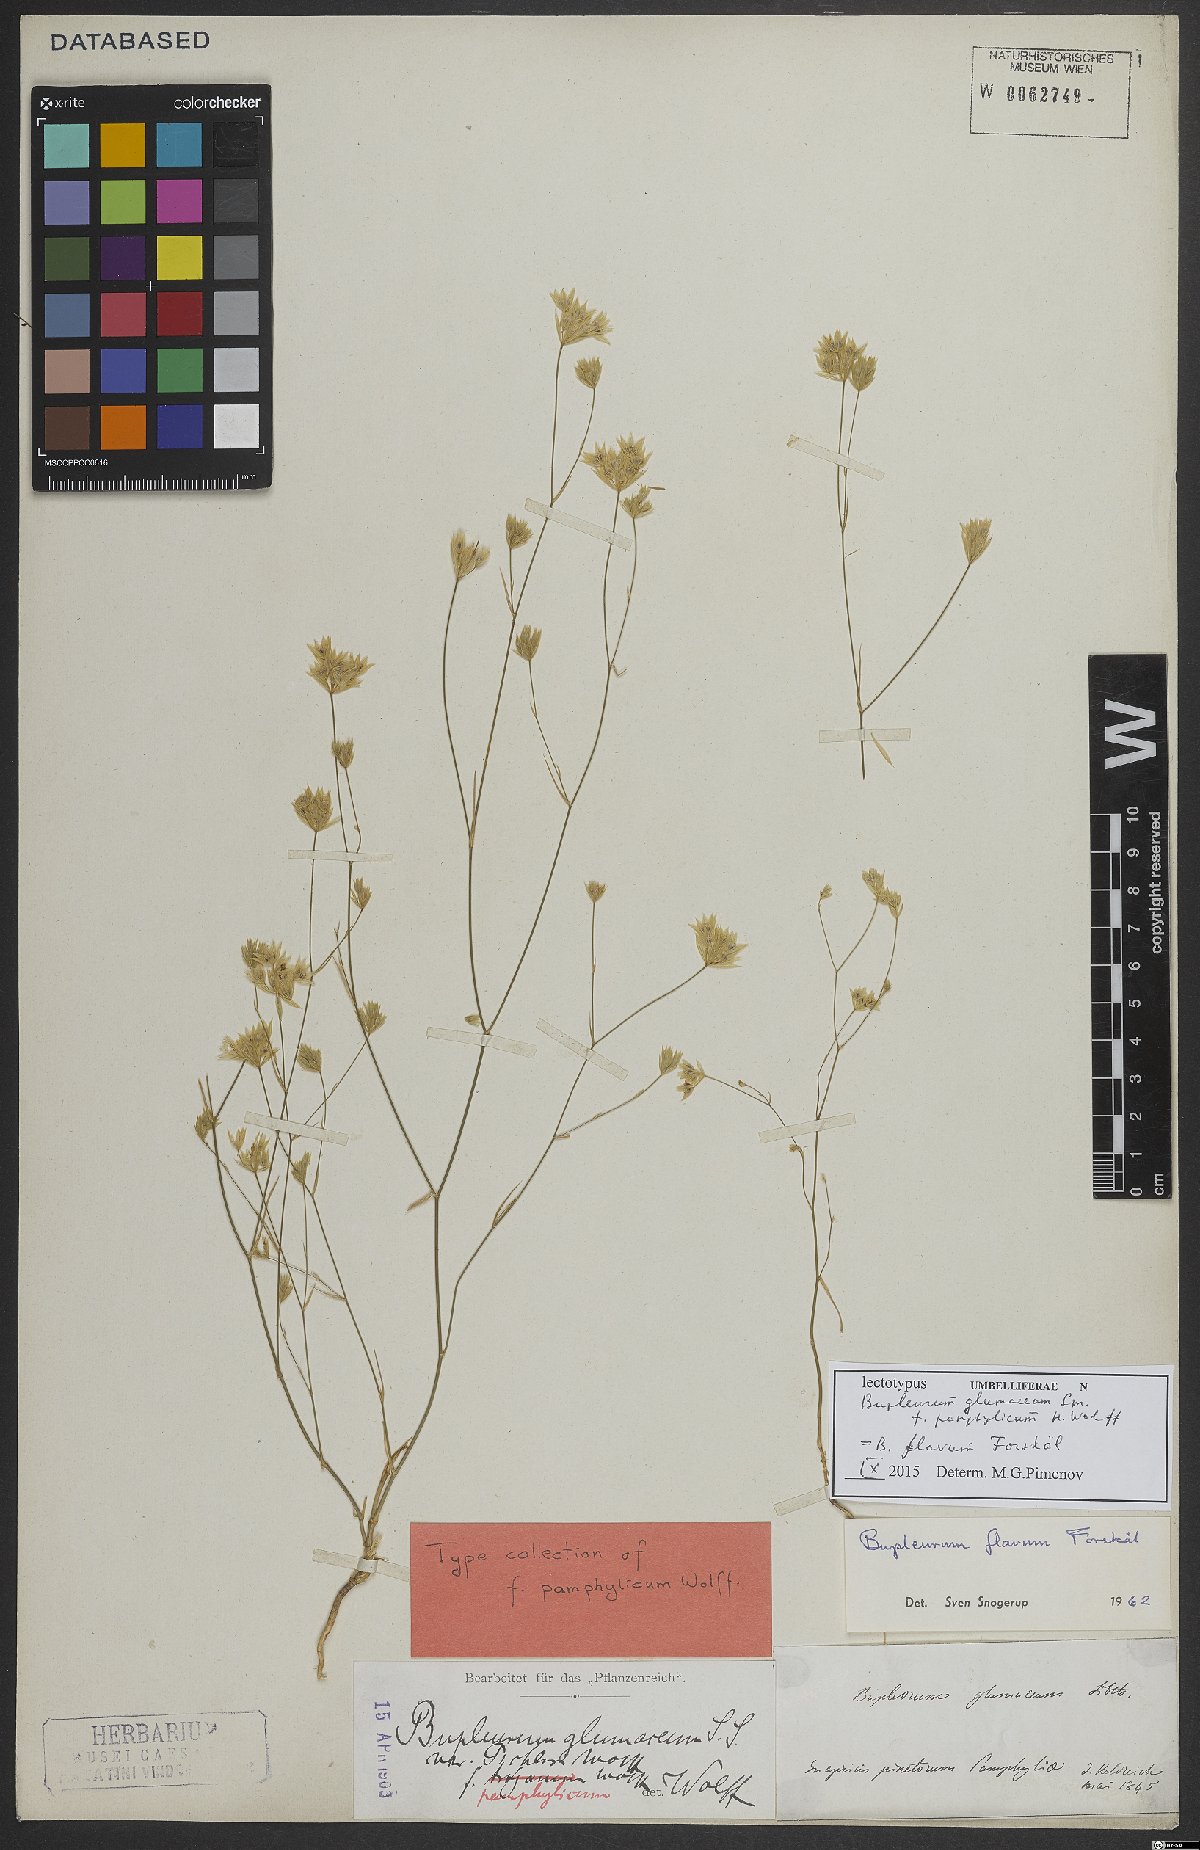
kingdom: Plantae
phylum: Tracheophyta
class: Magnoliopsida
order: Apiales
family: Apiaceae
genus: Bupleurum
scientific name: Bupleurum flavum
